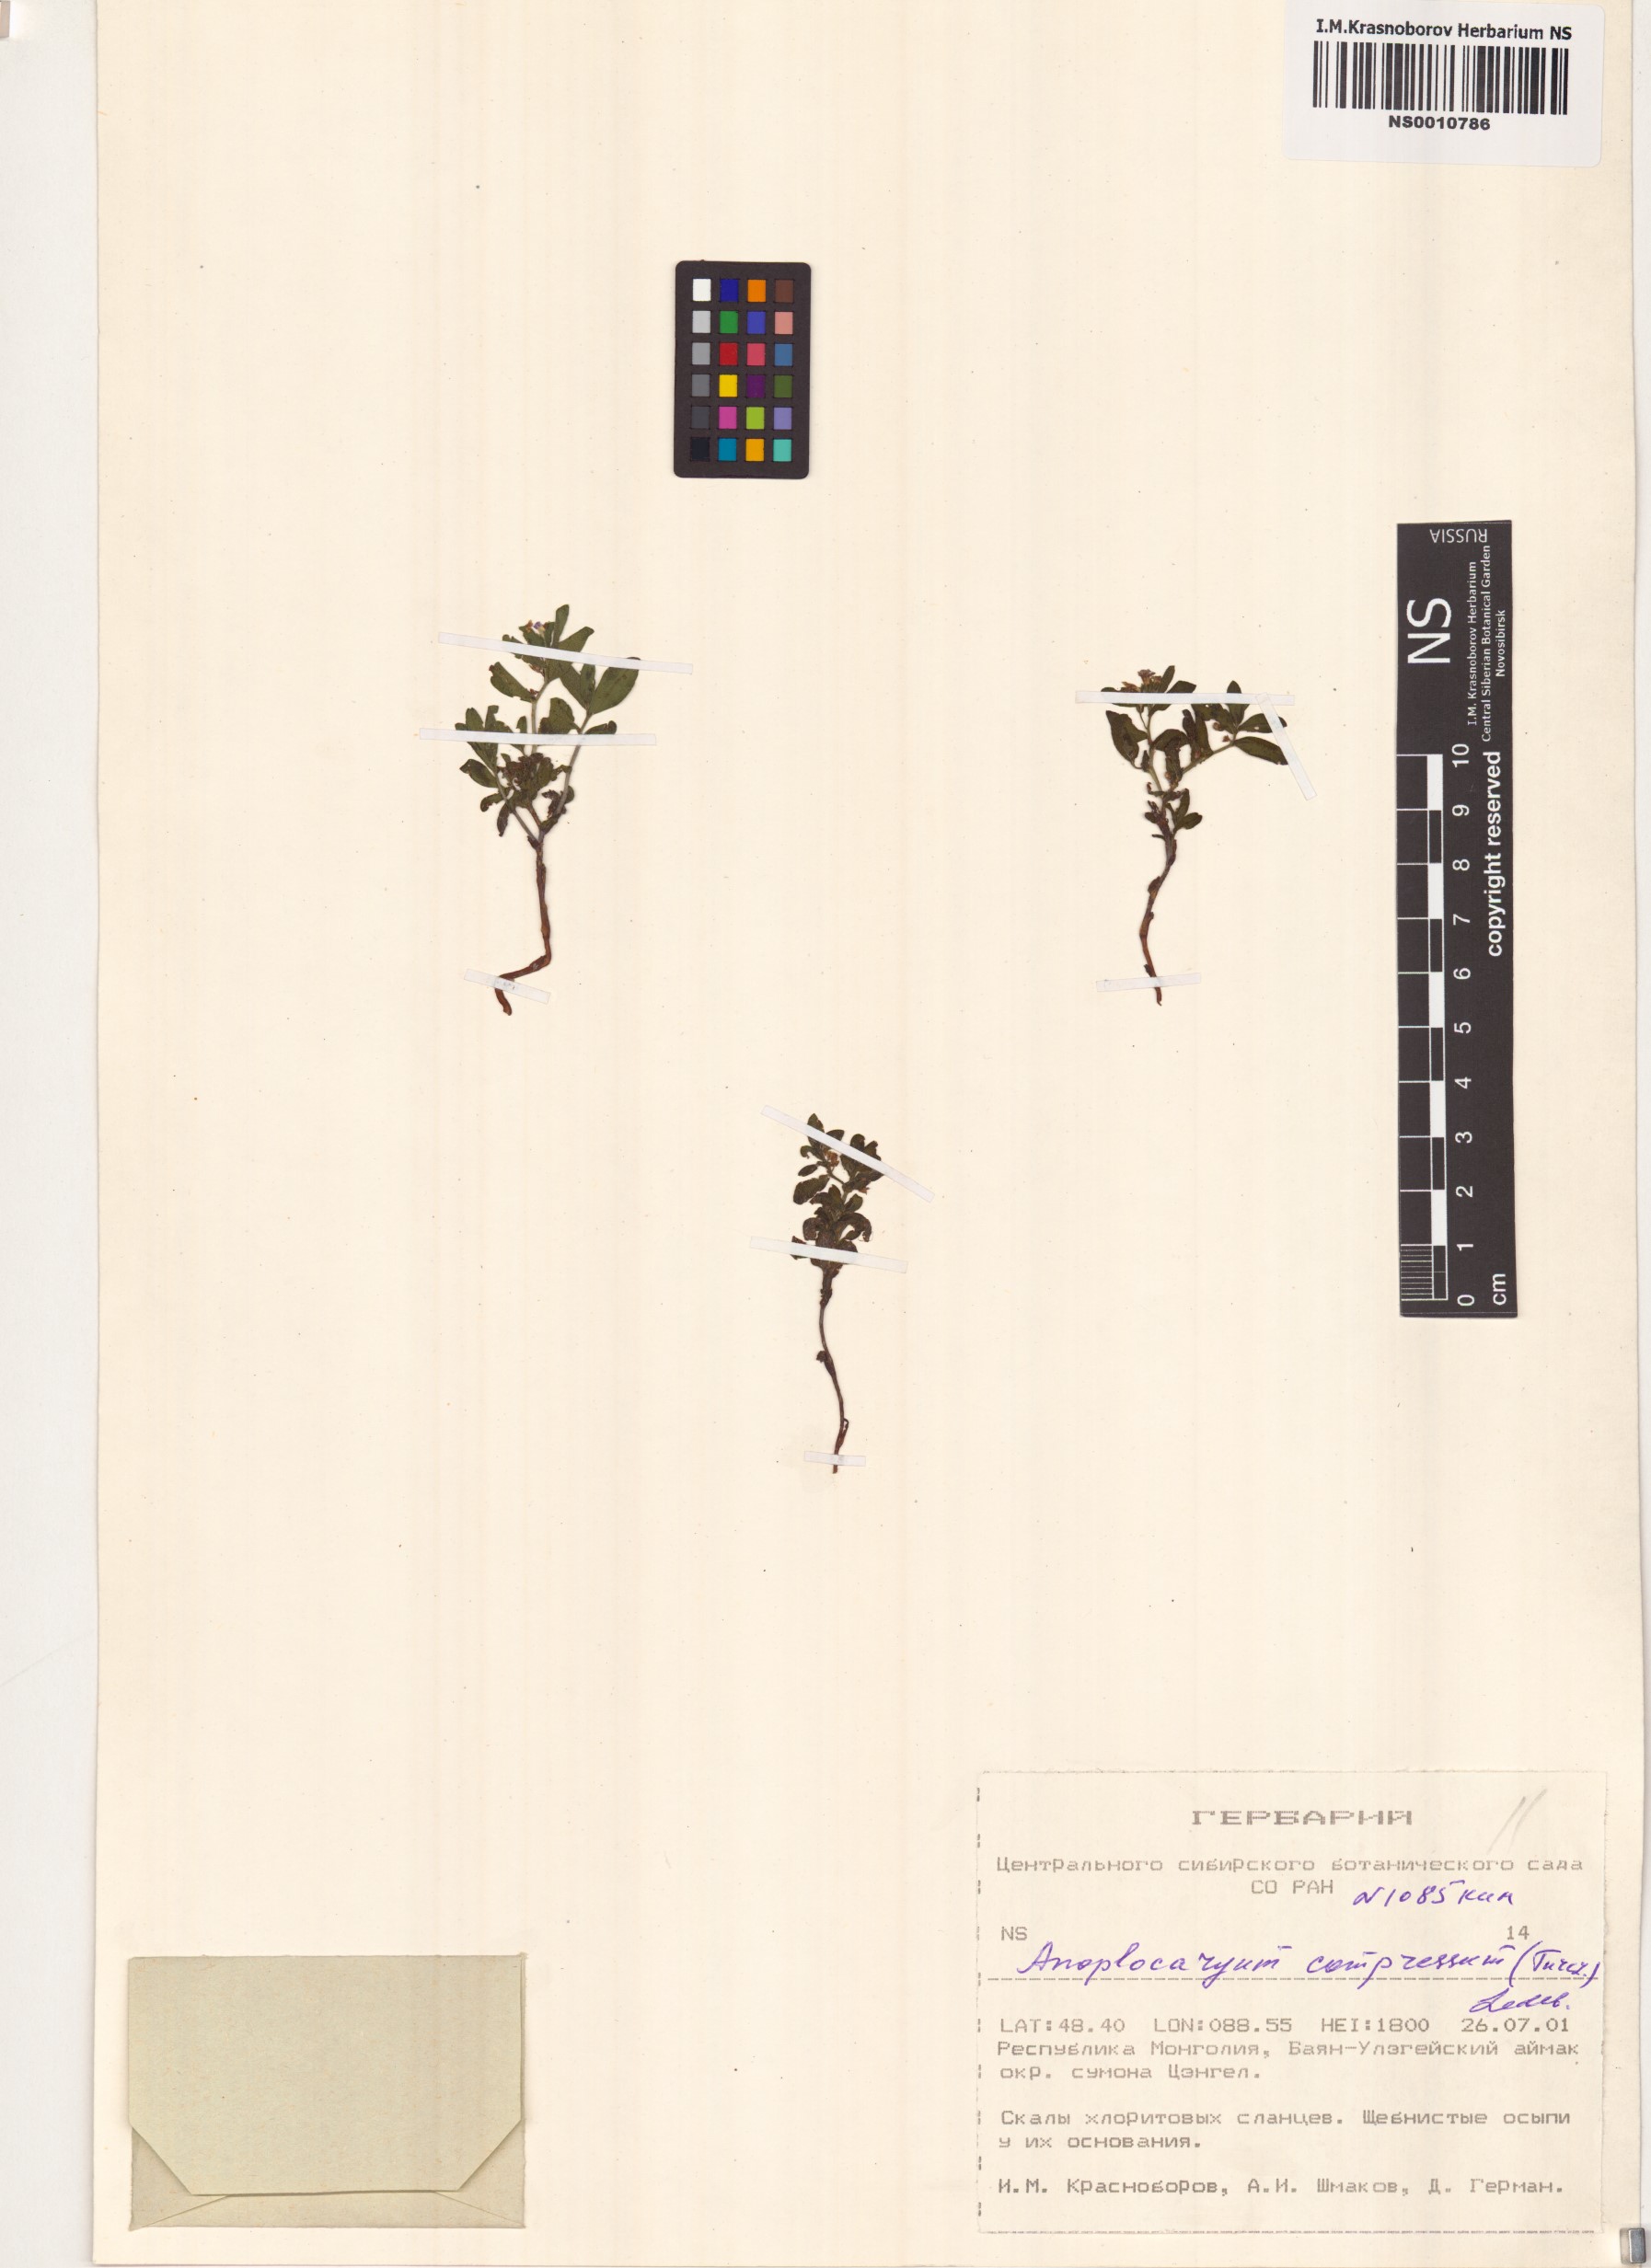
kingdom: Plantae
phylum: Tracheophyta
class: Magnoliopsida
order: Boraginales
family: Boraginaceae
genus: Anoplocaryum
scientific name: Anoplocaryum compressum
